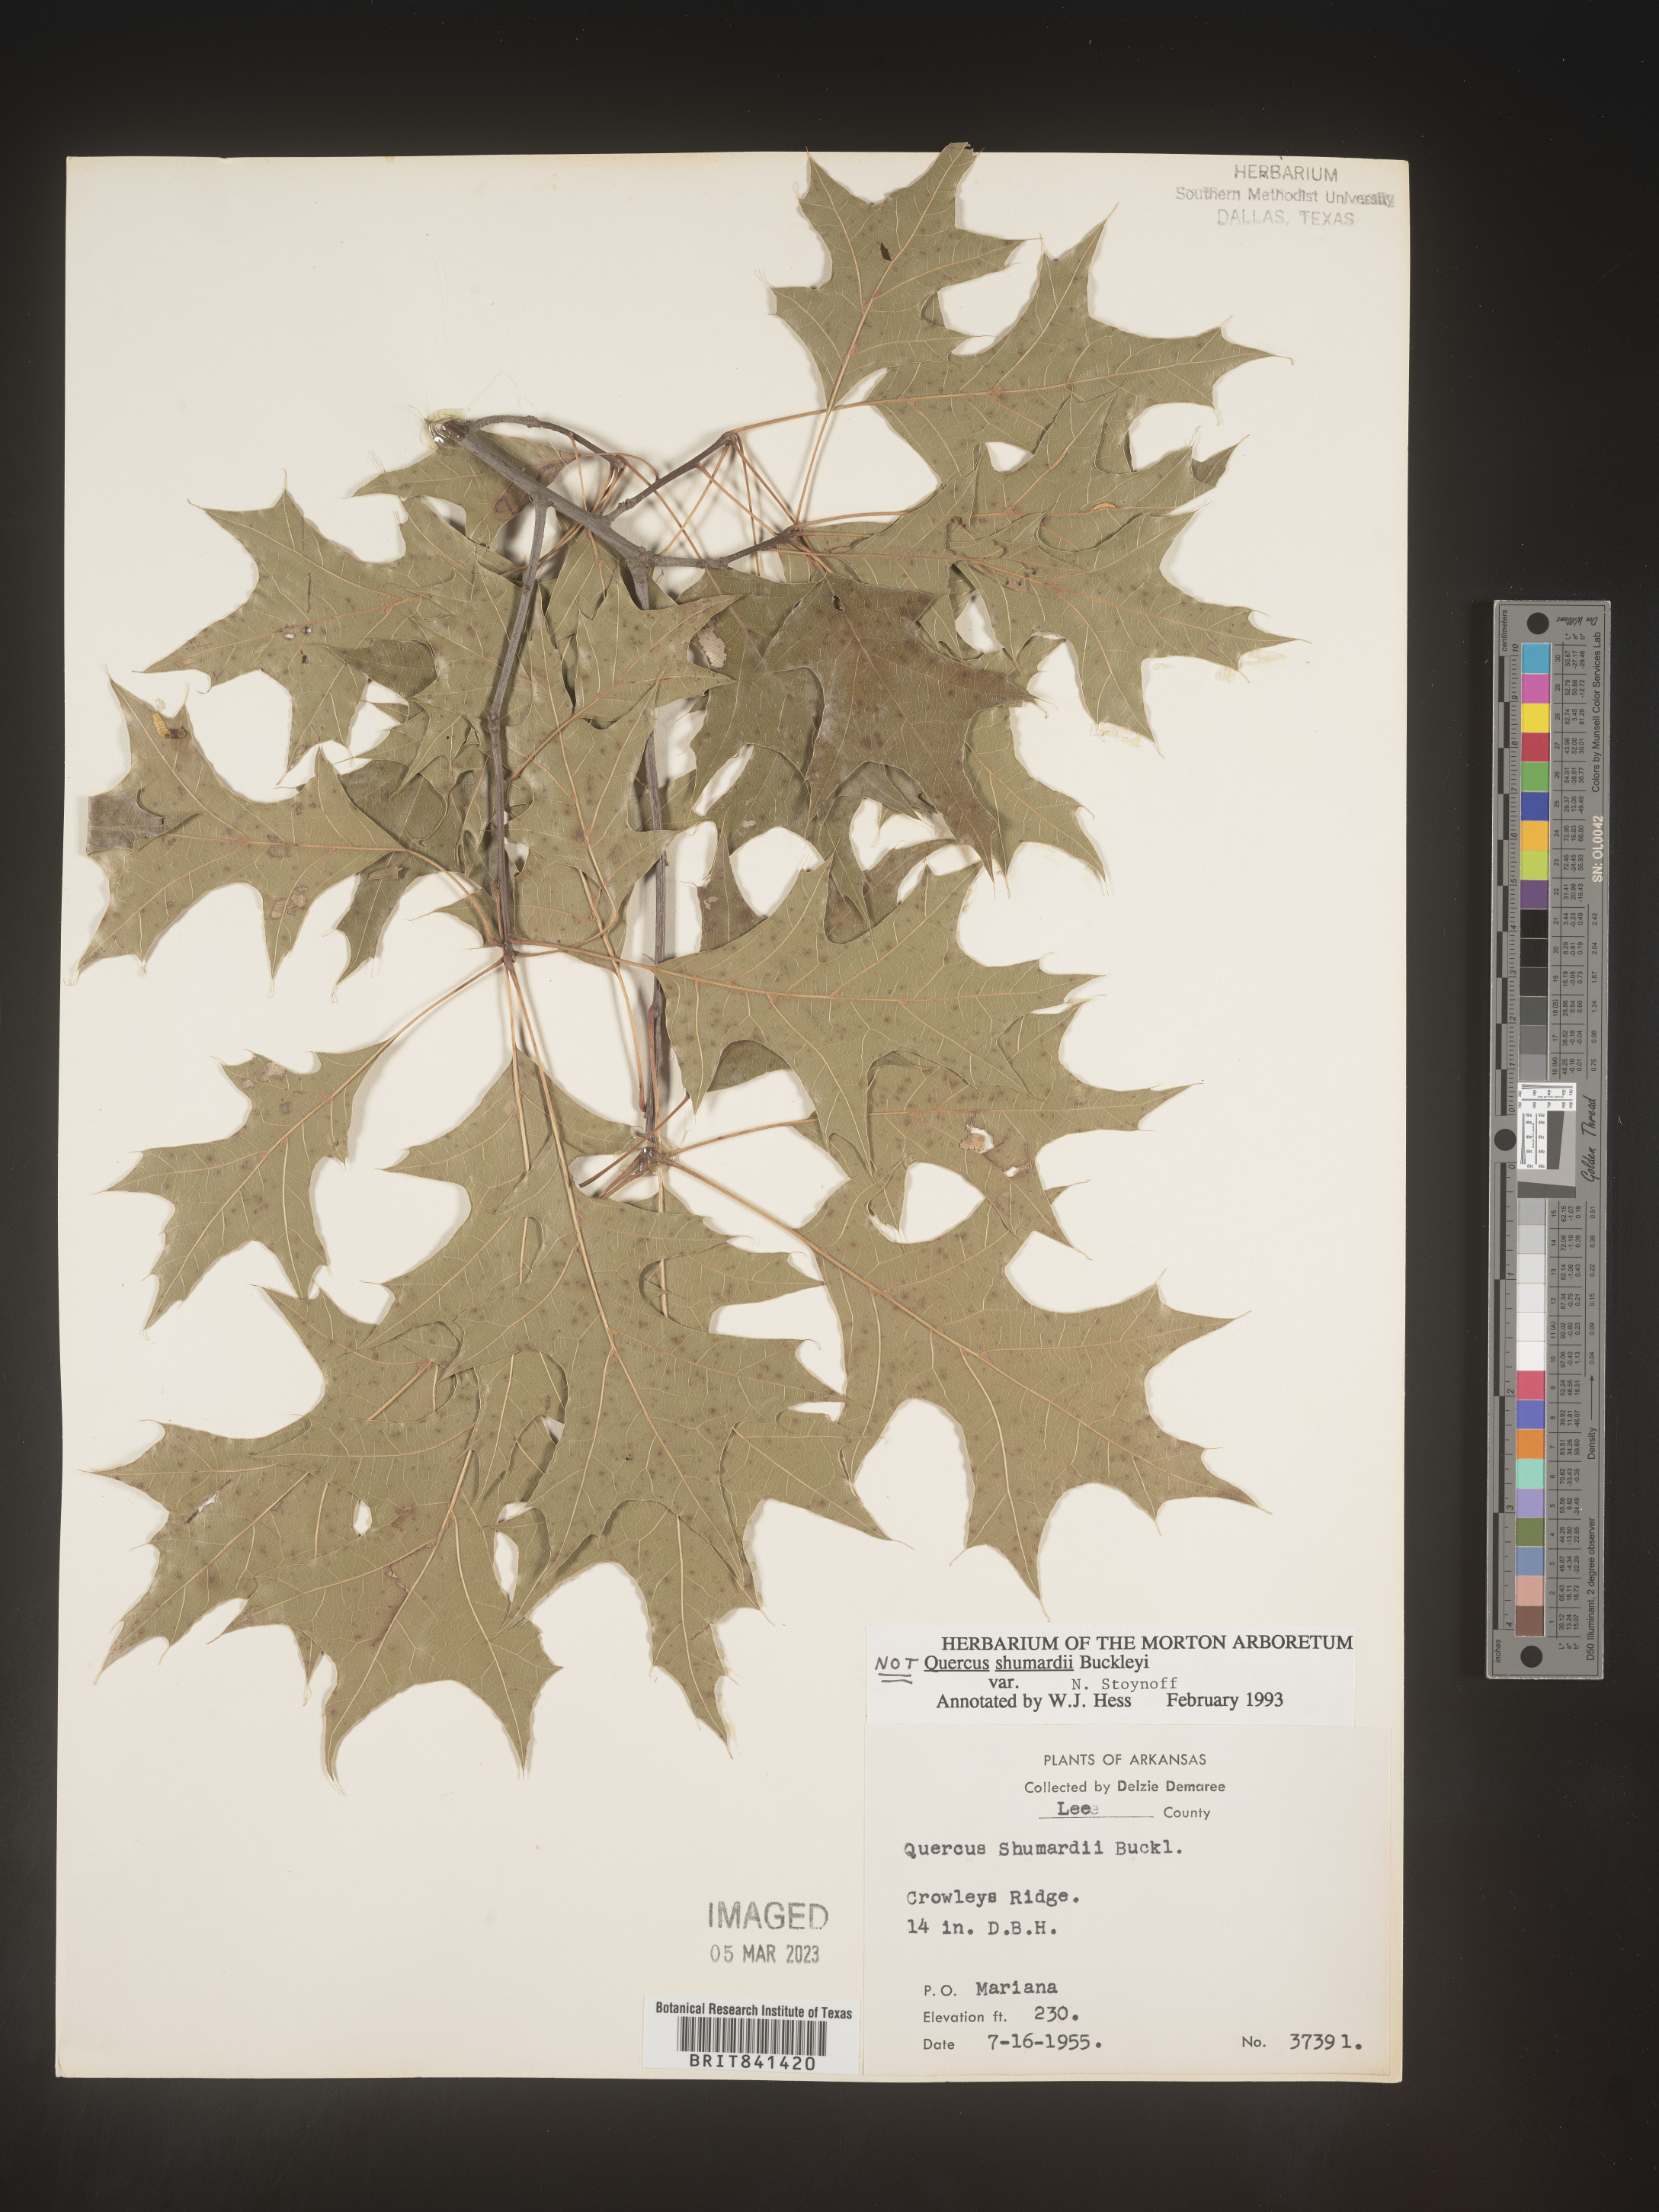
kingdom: Plantae
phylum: Tracheophyta
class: Magnoliopsida
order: Fagales
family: Fagaceae
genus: Quercus
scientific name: Quercus shumardii
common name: Shumard oak
